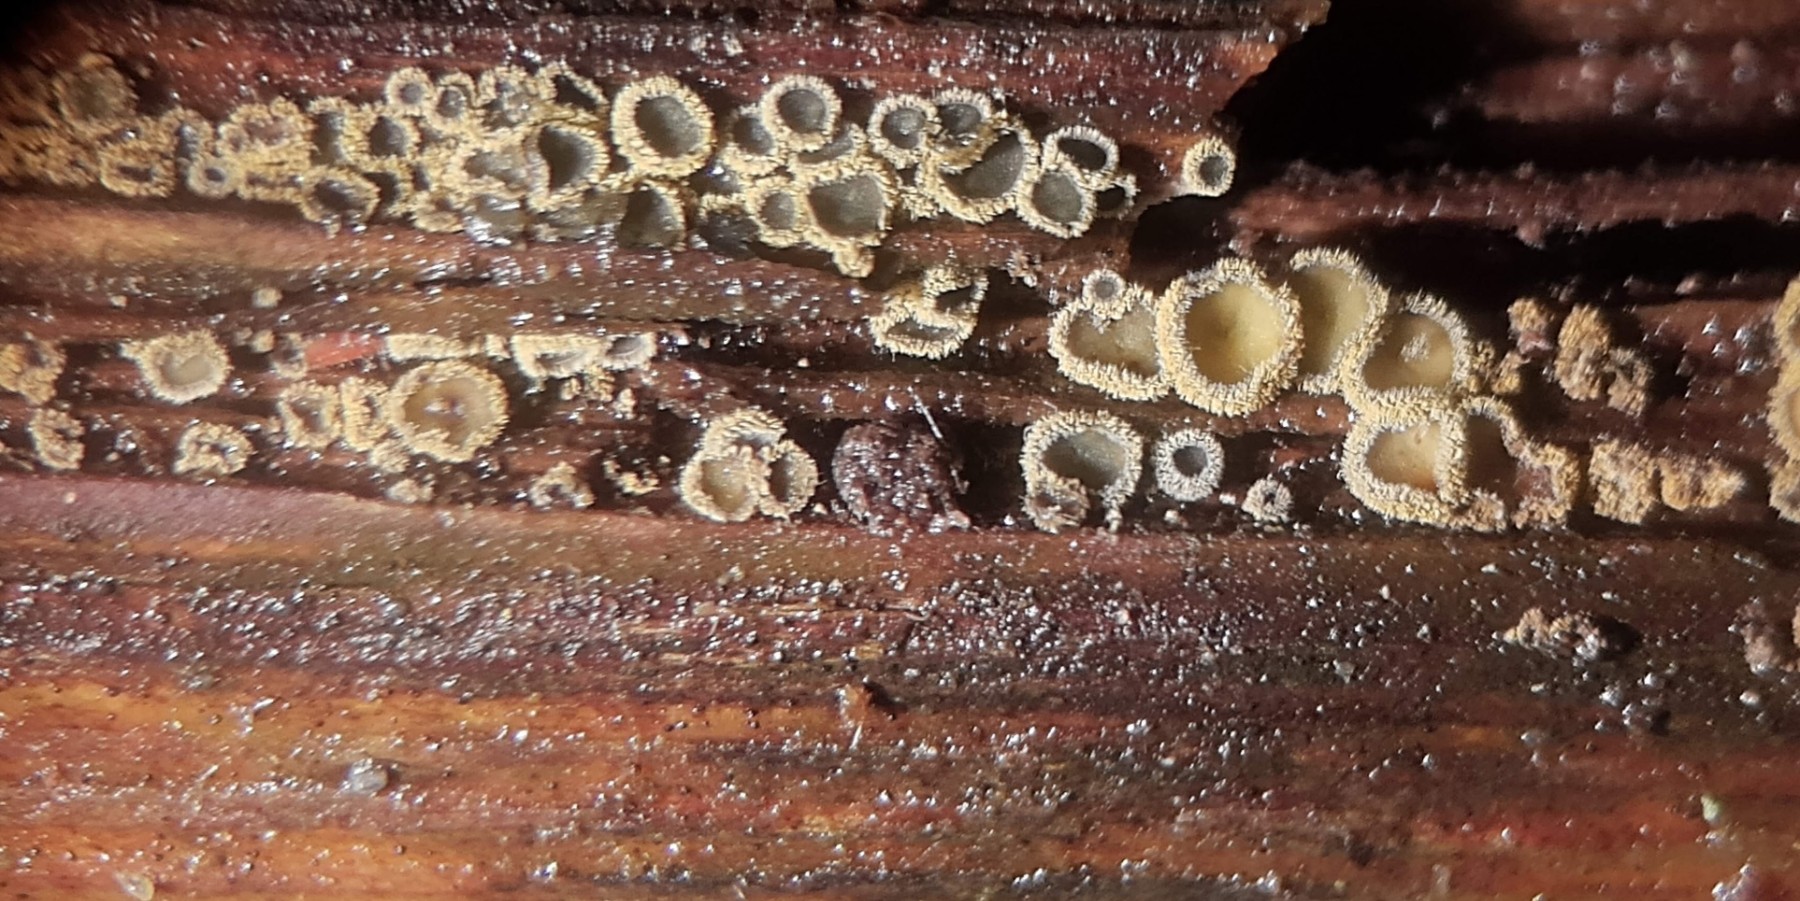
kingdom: Fungi
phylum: Ascomycota
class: Leotiomycetes
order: Helotiales
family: Lachnaceae
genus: Neodasyscypha
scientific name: Neodasyscypha cerina
